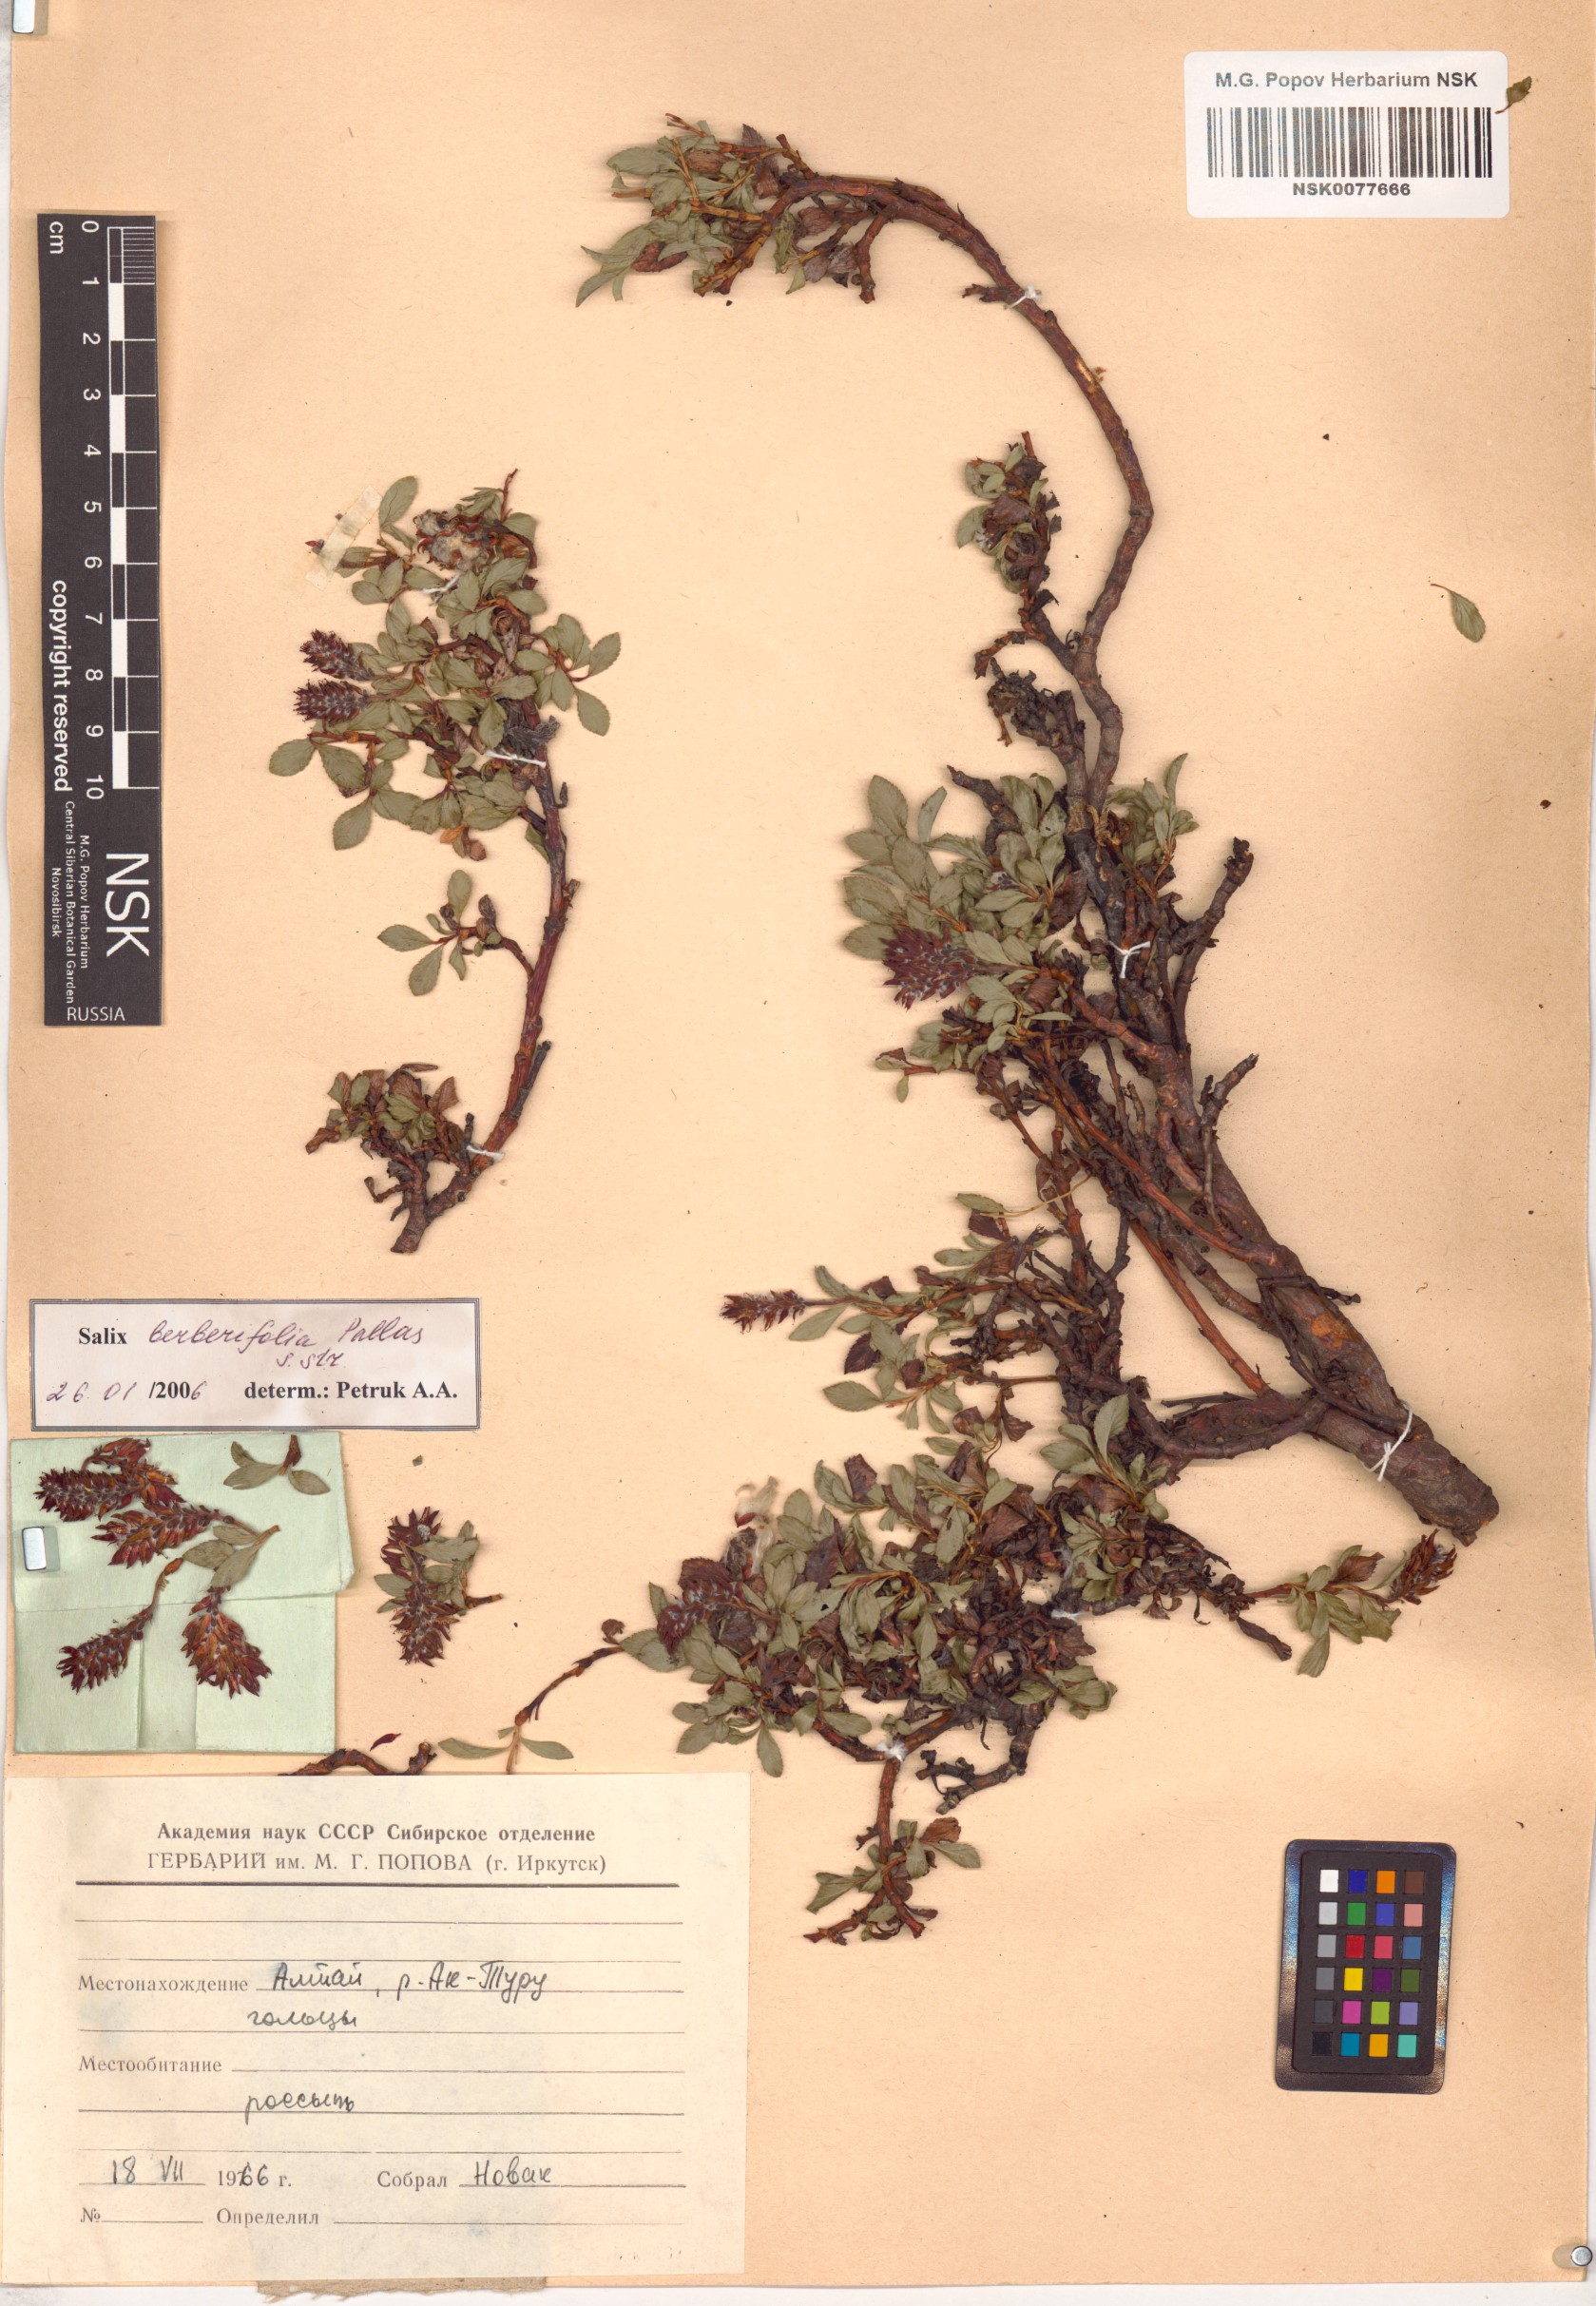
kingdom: Plantae
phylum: Tracheophyta
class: Magnoliopsida
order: Malpighiales
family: Salicaceae
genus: Salix
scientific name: Salix berberifolia
